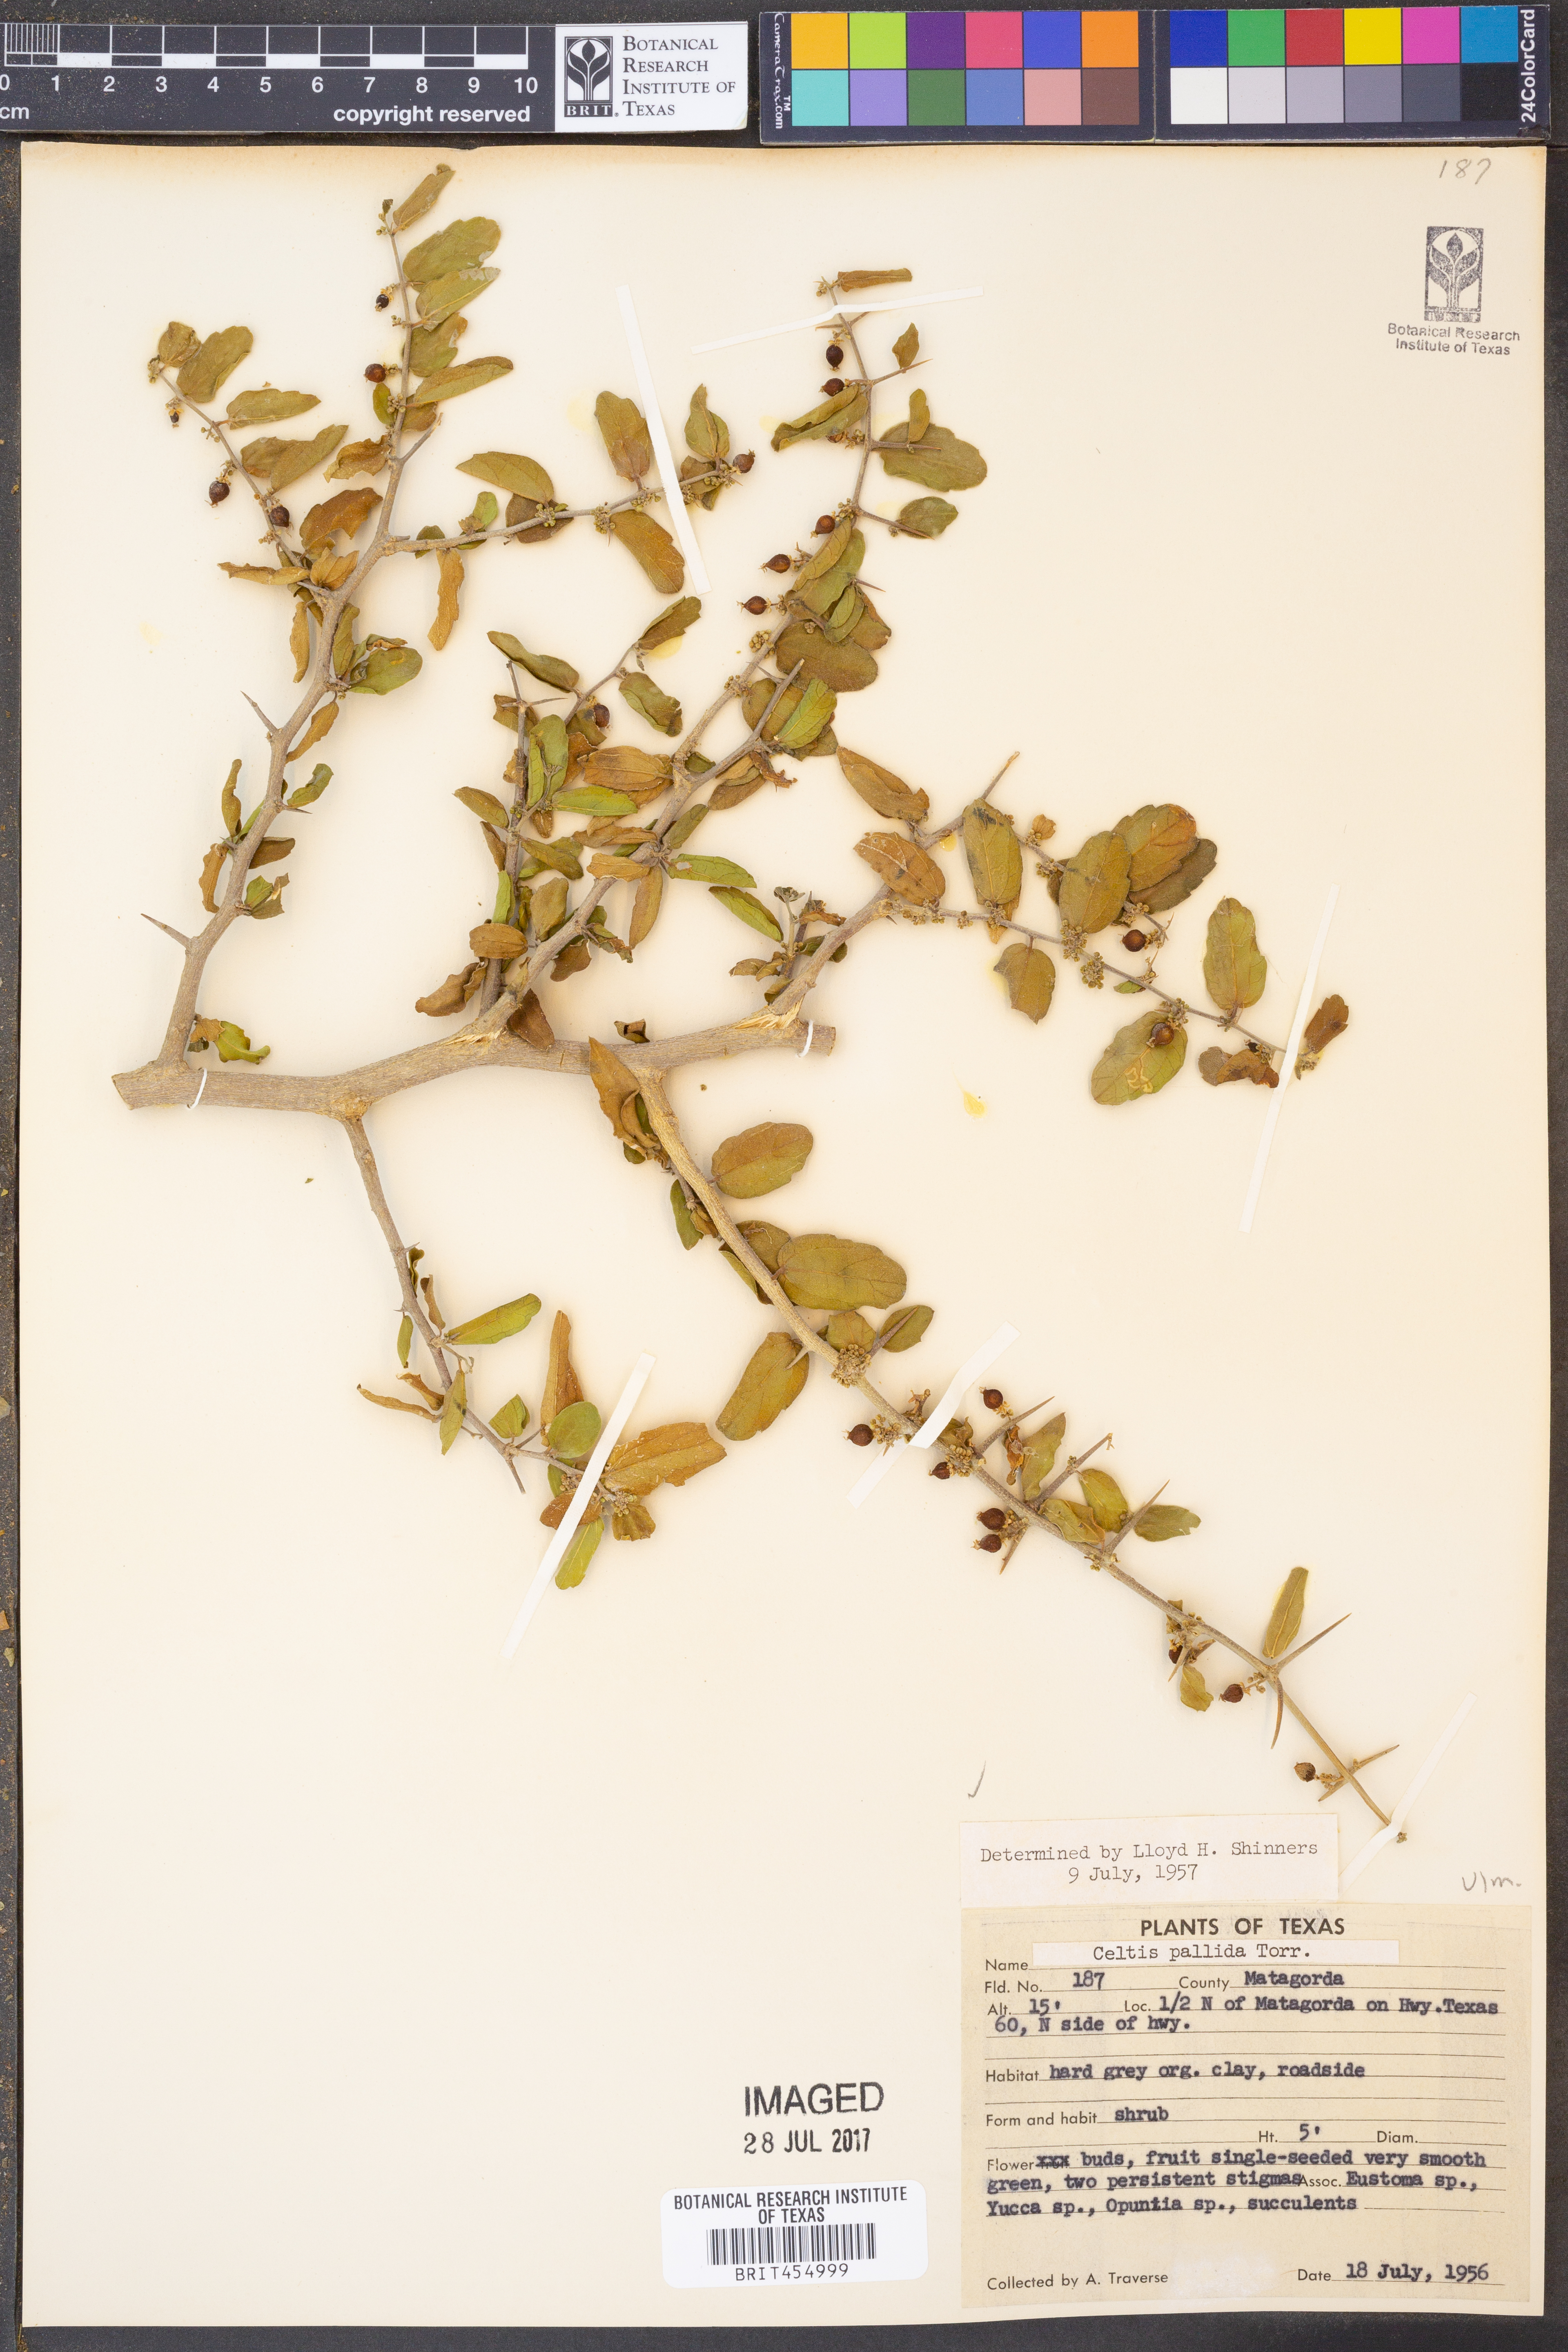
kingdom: Plantae
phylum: Tracheophyta
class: Magnoliopsida
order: Rosales
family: Cannabaceae
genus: Celtis
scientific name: Celtis pallida
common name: Desert hackberry
